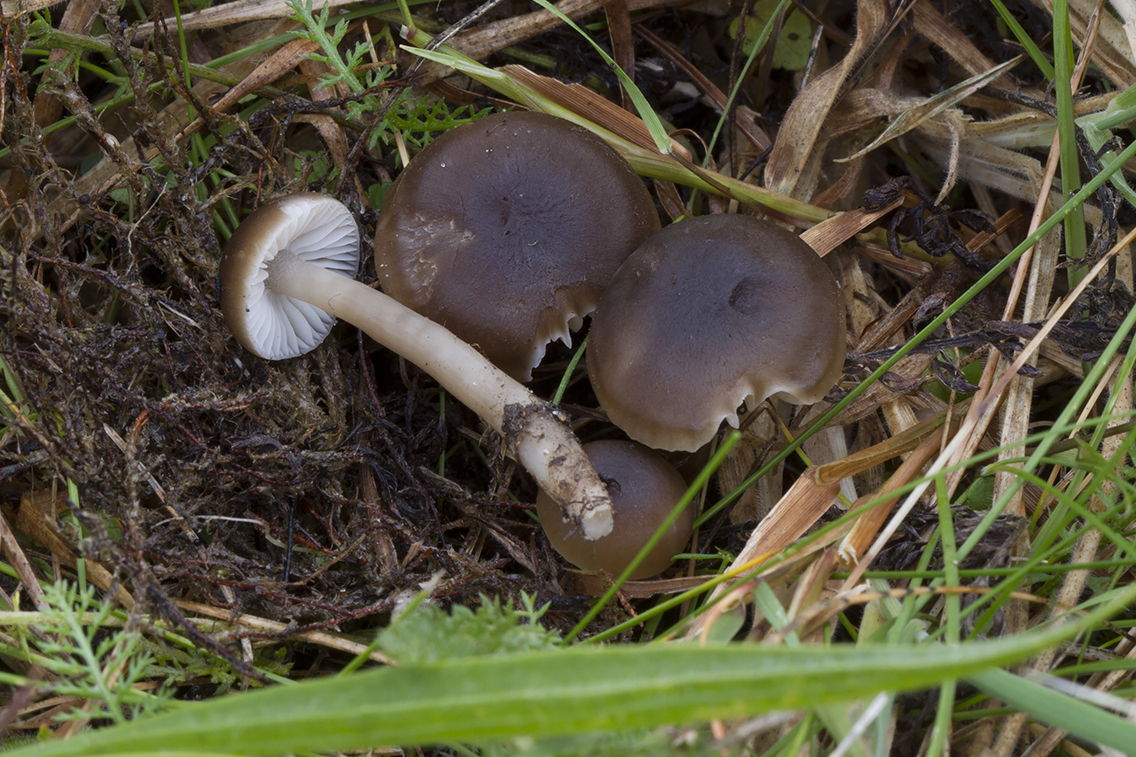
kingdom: Fungi
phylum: Basidiomycota
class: Agaricomycetes
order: Agaricales
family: Hygrophoraceae
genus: Neohygrocybe
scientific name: Neohygrocybe nitrata
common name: stinkende vokshat
